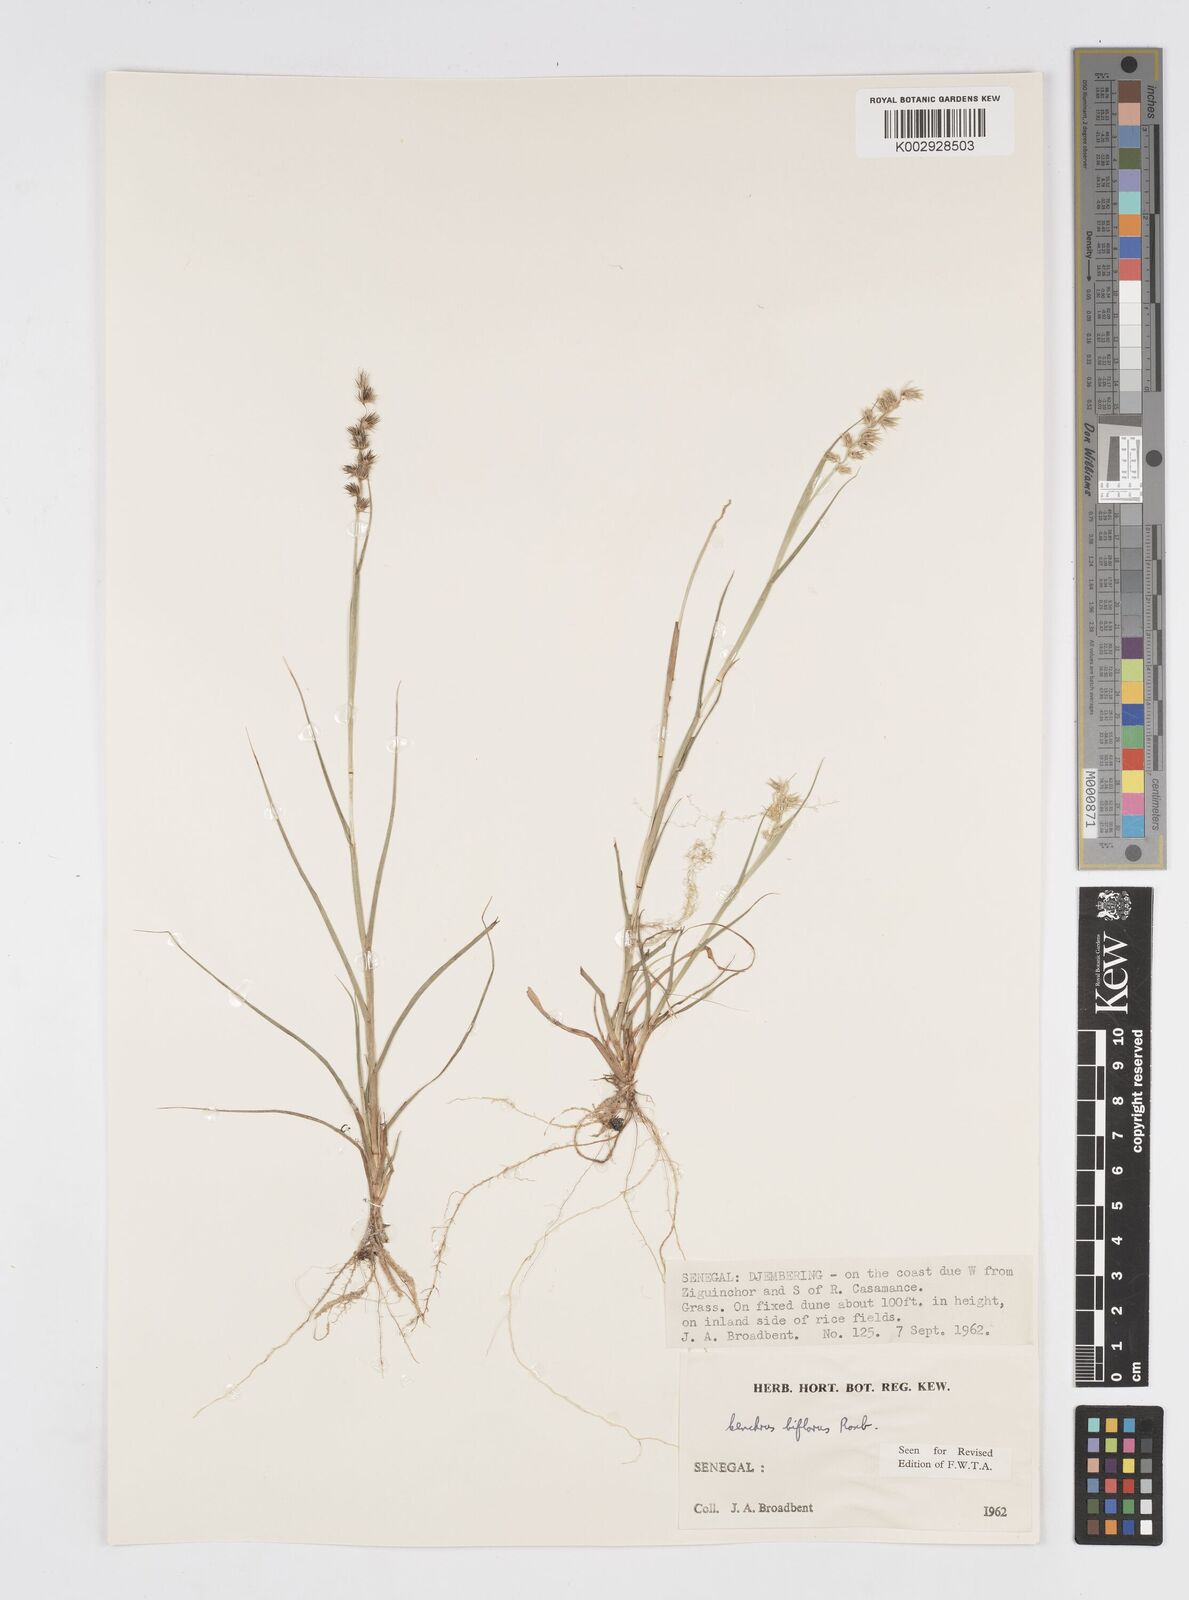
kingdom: Plantae
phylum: Tracheophyta
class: Liliopsida
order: Poales
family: Poaceae
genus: Cenchrus
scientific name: Cenchrus biflorus
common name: Indian sandbur
